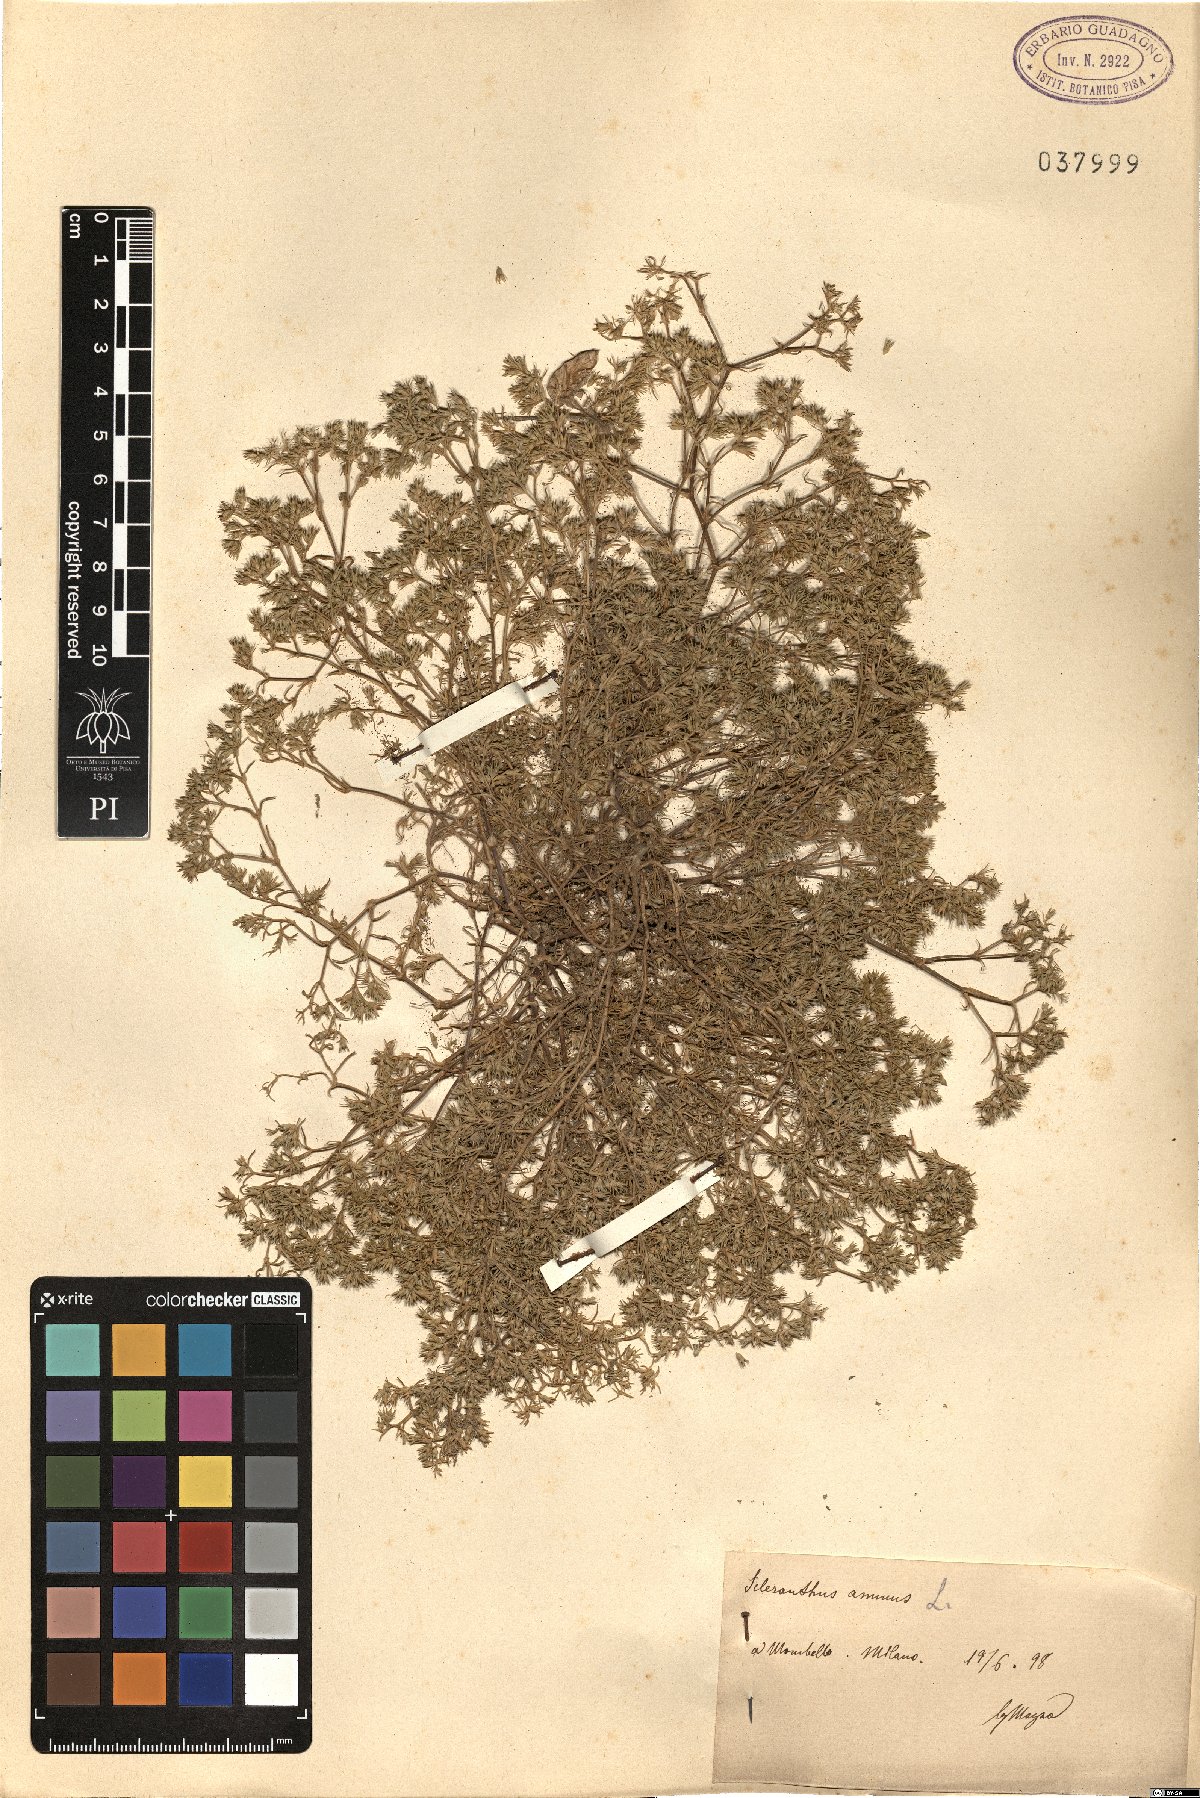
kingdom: Plantae
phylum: Tracheophyta
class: Magnoliopsida
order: Caryophyllales
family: Caryophyllaceae
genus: Scleranthus
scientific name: Scleranthus annuus
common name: Annual knawel
